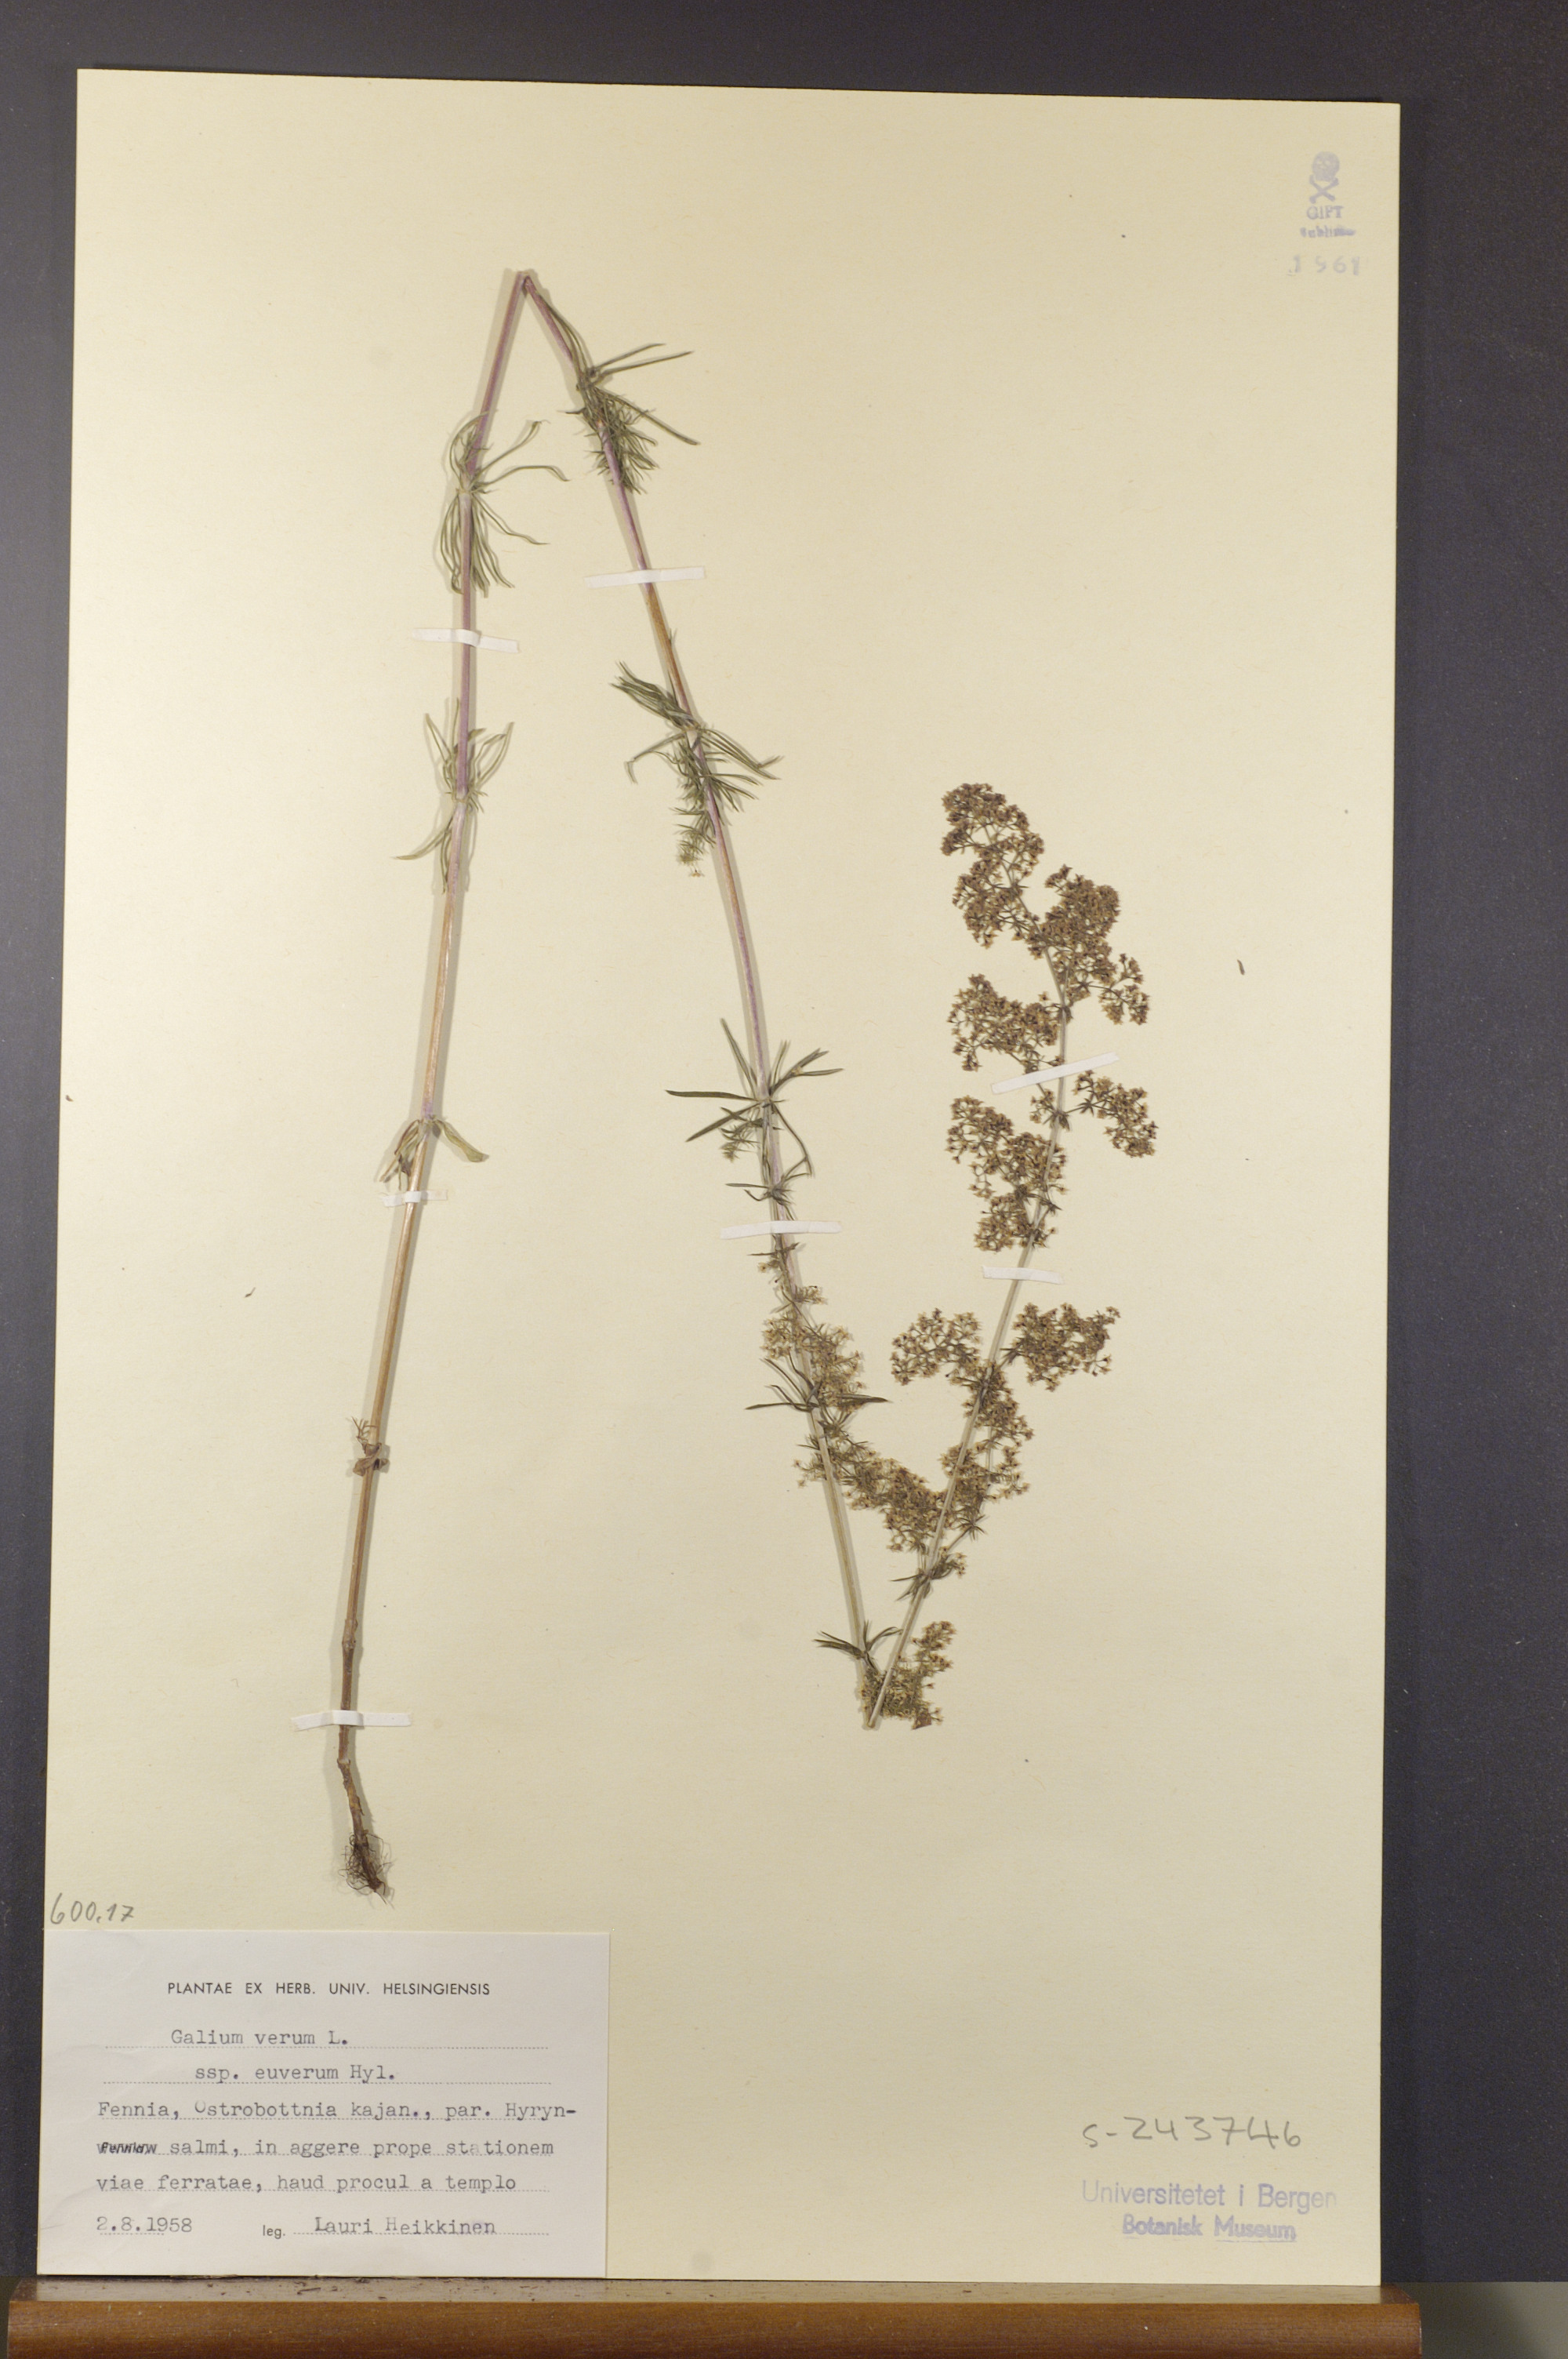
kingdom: Plantae
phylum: Tracheophyta
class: Magnoliopsida
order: Gentianales
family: Rubiaceae
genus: Galium
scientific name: Galium verum
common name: Lady's bedstraw
